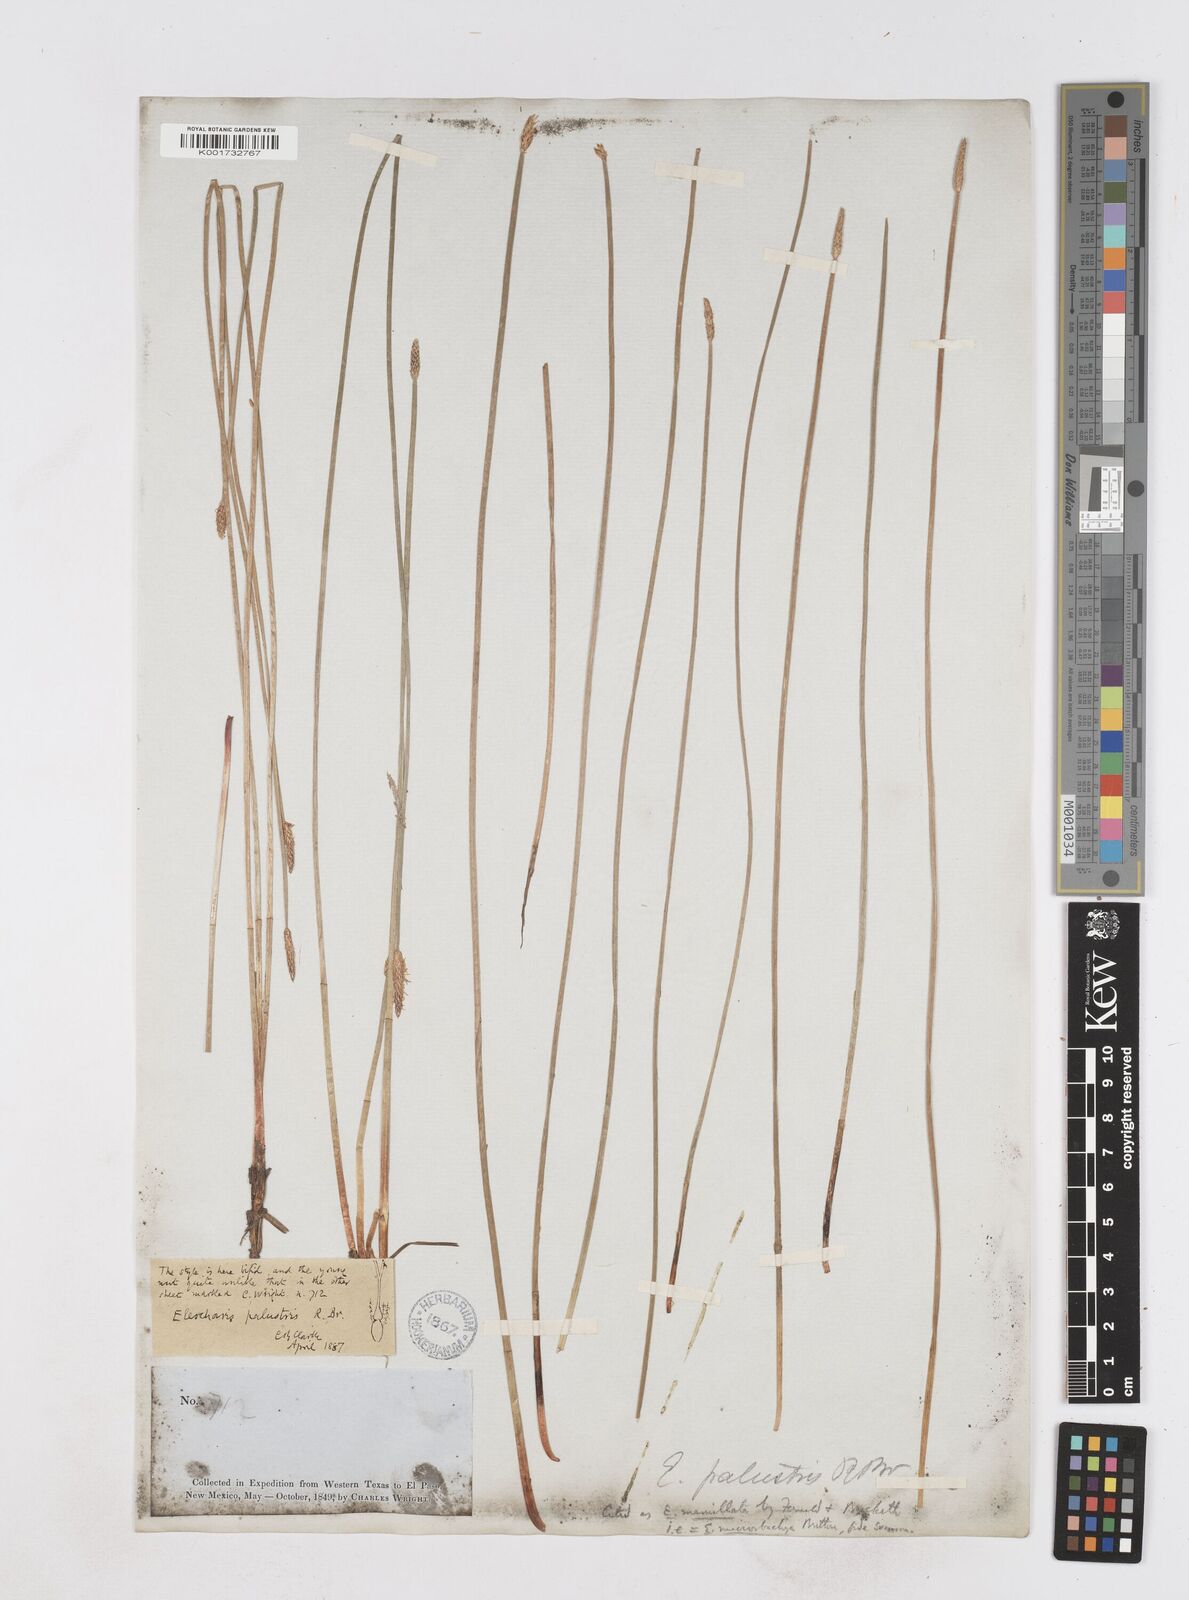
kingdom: Plantae
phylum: Tracheophyta
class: Liliopsida
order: Poales
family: Cyperaceae
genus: Eleocharis
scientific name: Eleocharis macrostachya
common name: Pale spikerush
